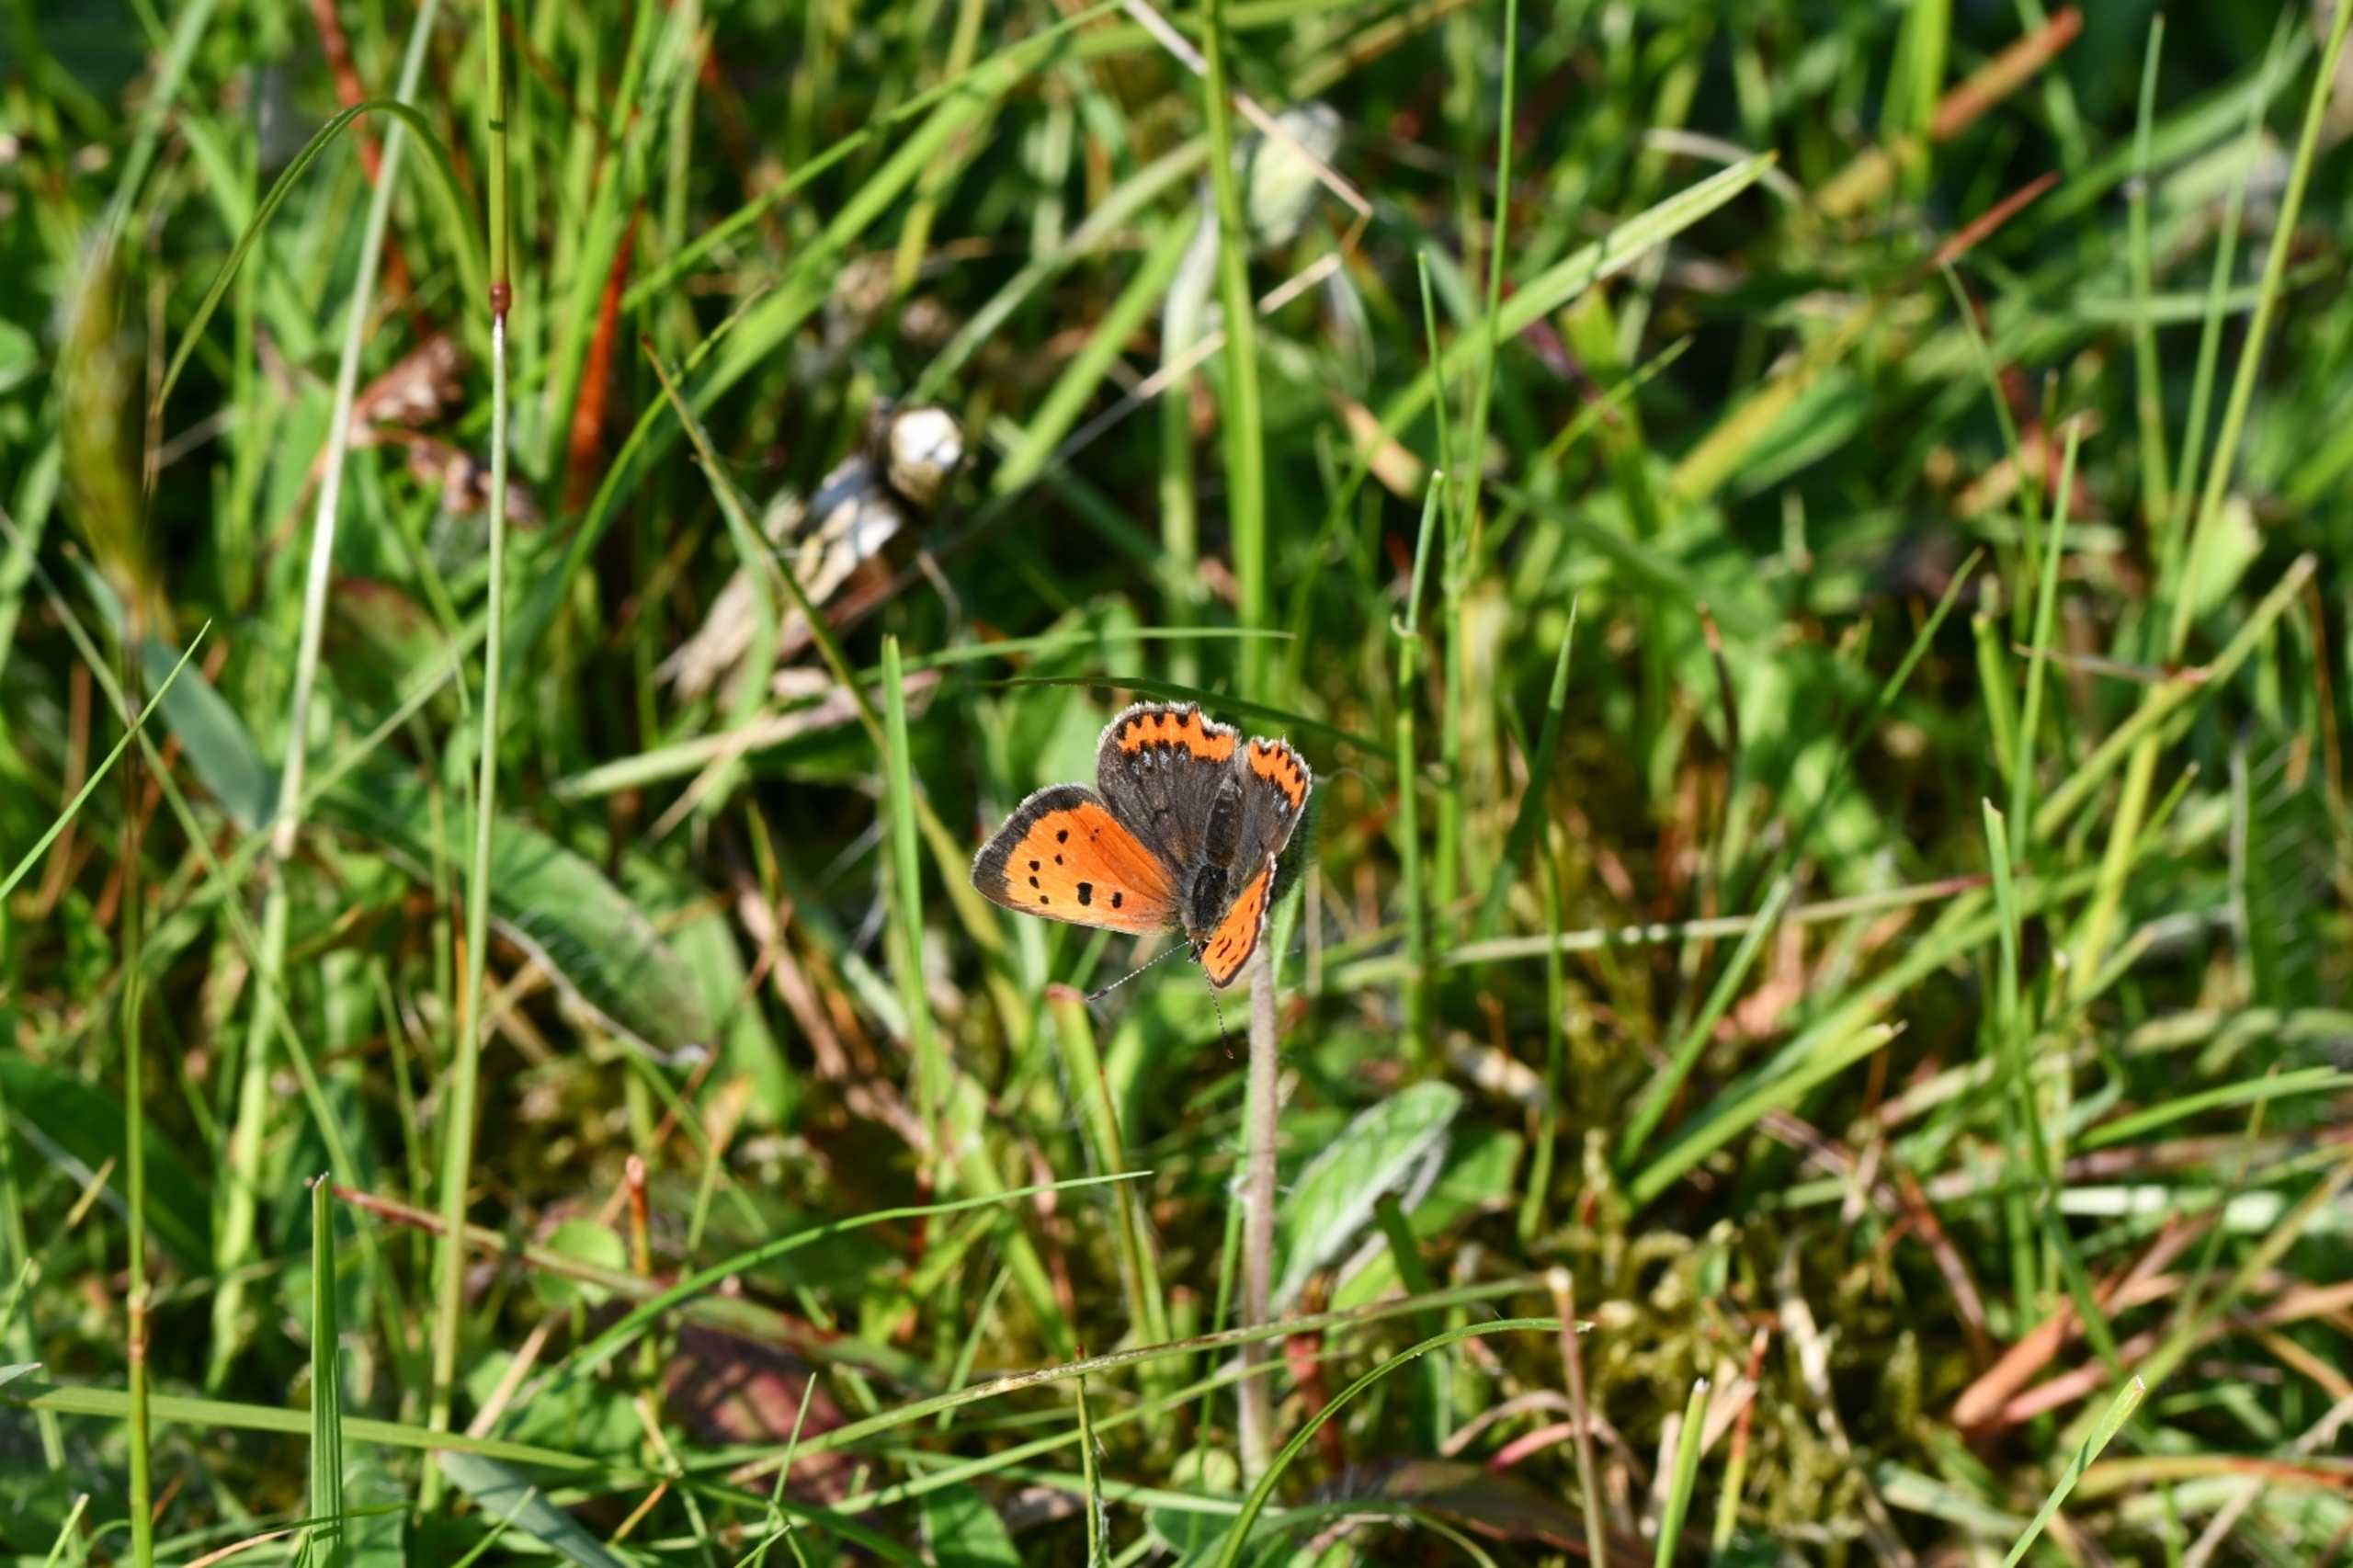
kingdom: Animalia
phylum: Arthropoda
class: Insecta
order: Lepidoptera
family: Lycaenidae
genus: Lycaena
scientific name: Lycaena phlaeas
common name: Lille ildfugl
